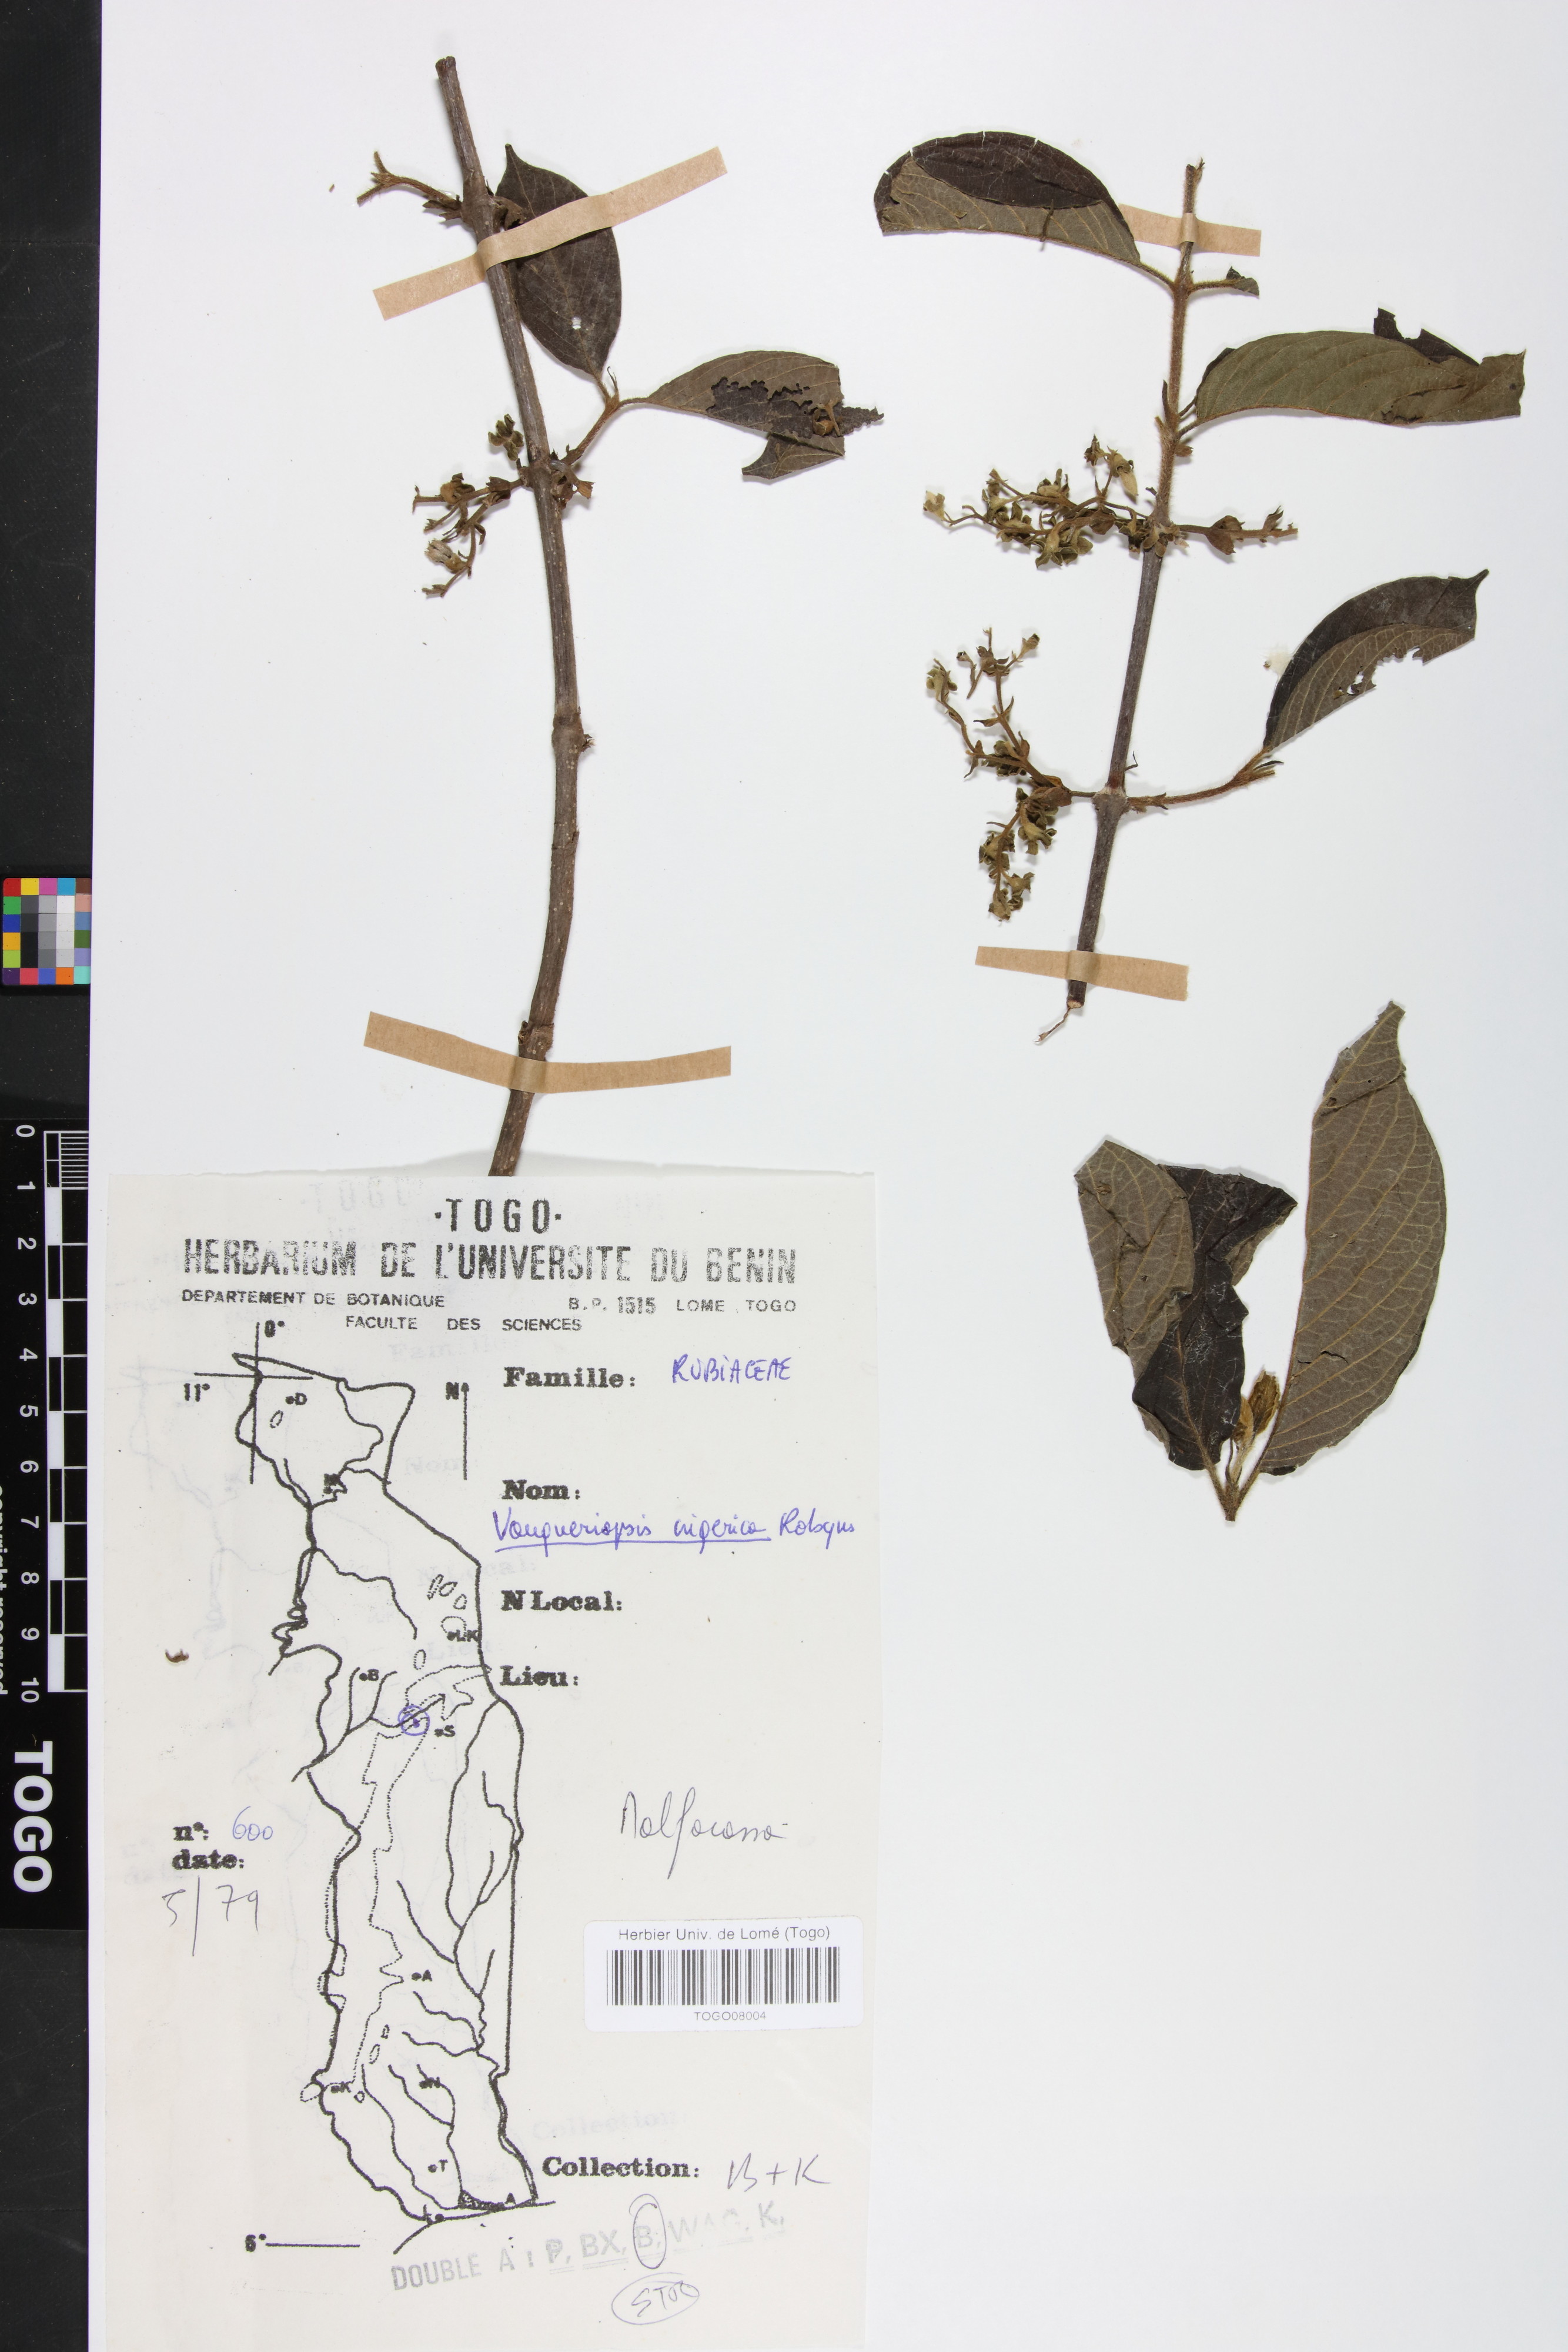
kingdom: Plantae
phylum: Tracheophyta
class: Magnoliopsida
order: Gentianales
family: Rubiaceae
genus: Vangueriella
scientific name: Vangueriella nigerica
